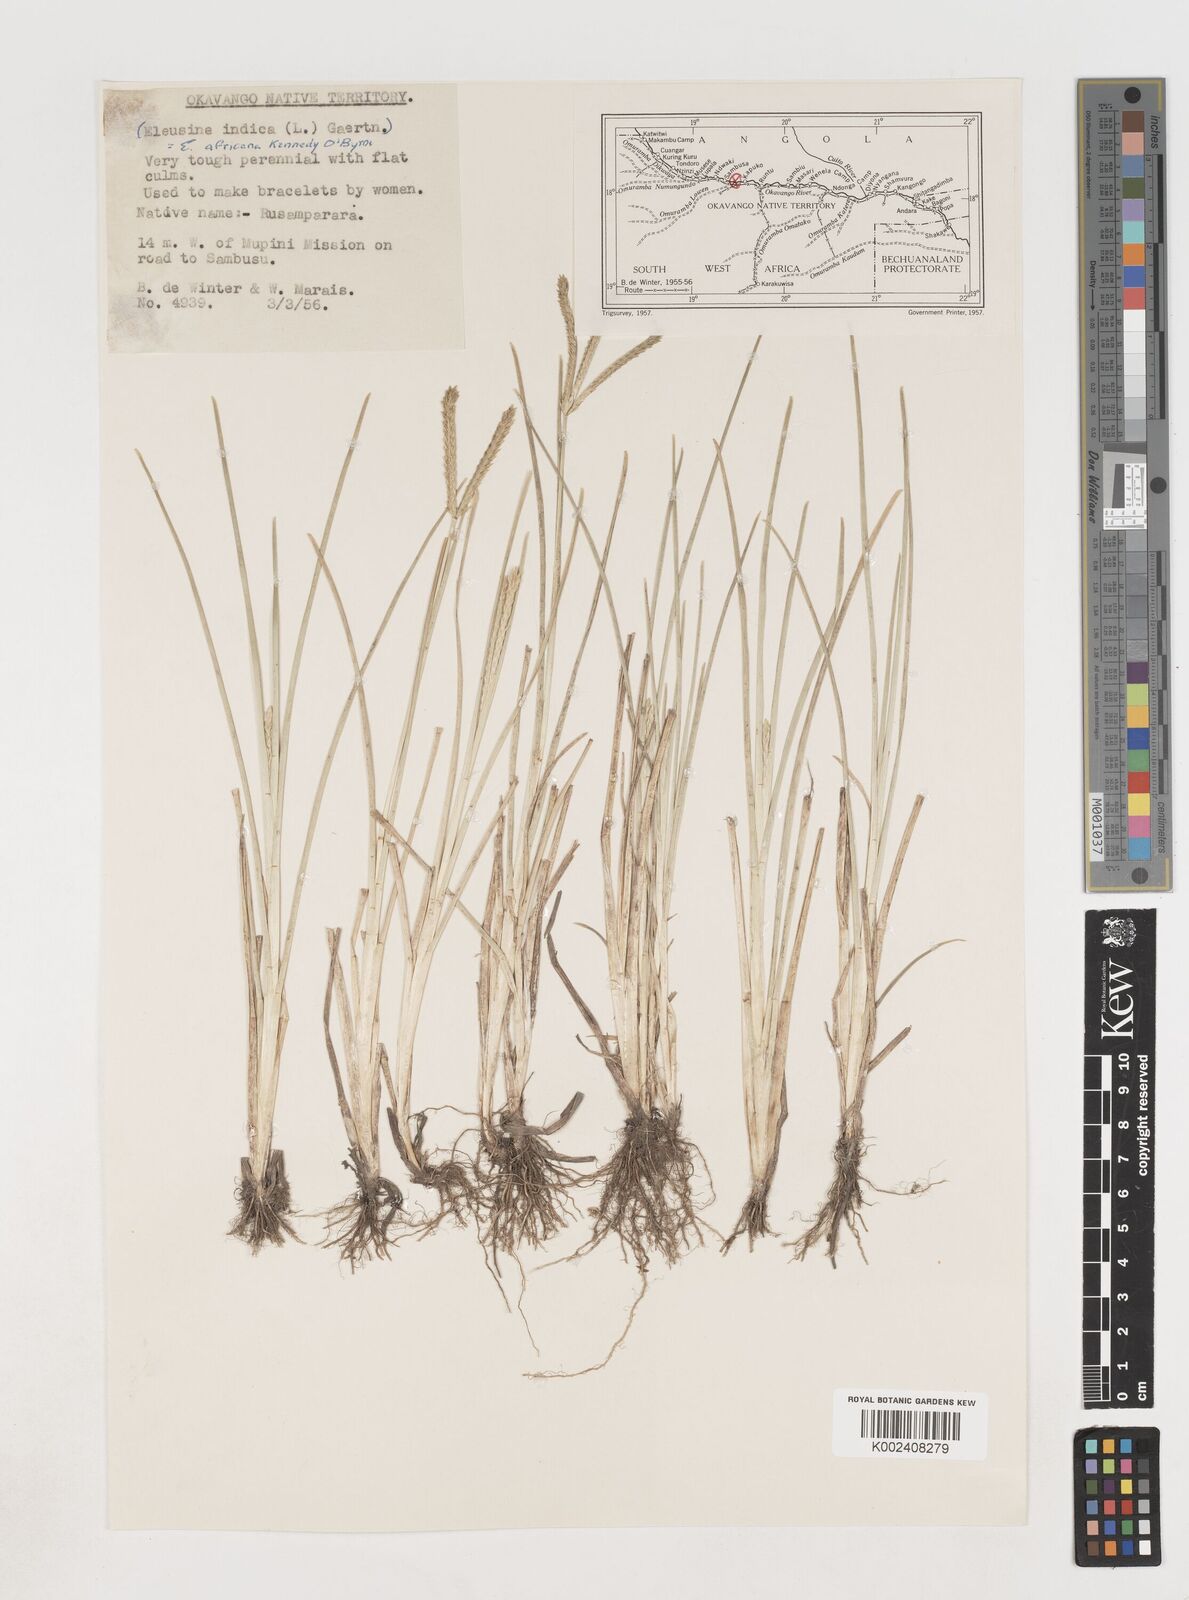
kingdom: Plantae
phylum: Tracheophyta
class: Liliopsida
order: Poales
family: Poaceae
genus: Eleusine
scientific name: Eleusine africana
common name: Wild african finger millet
